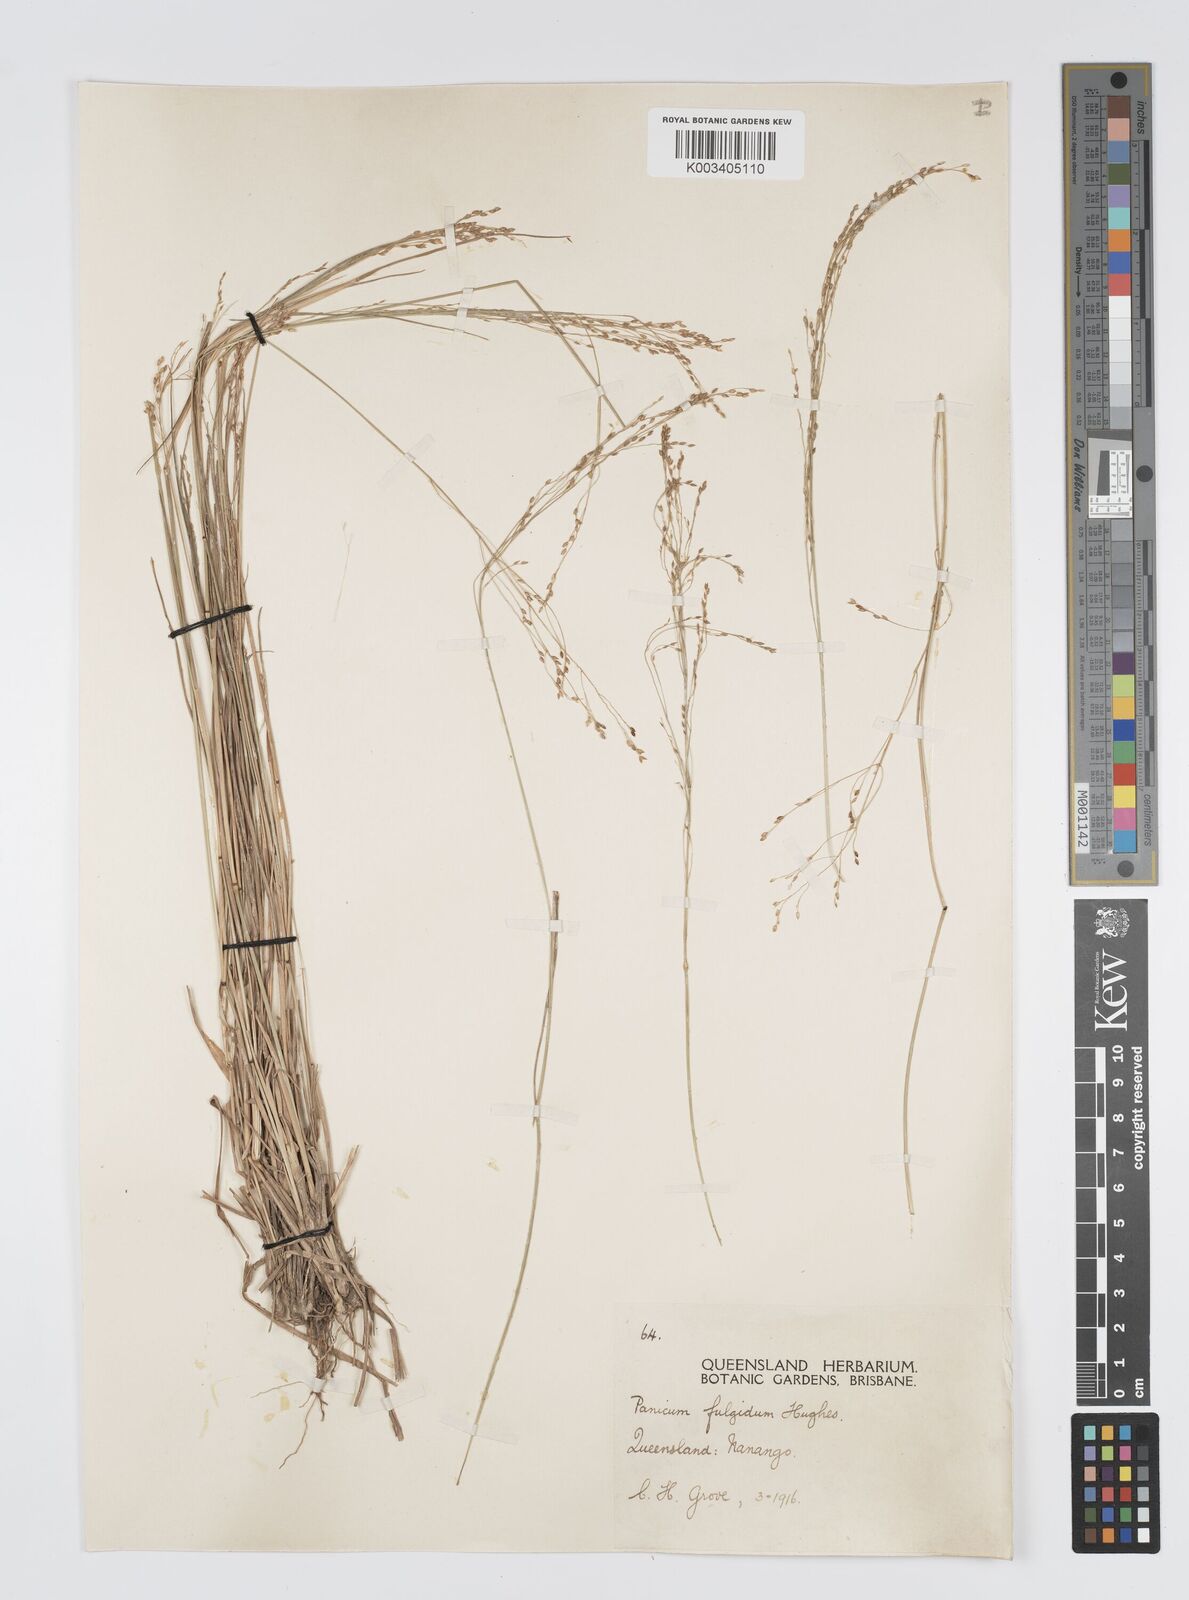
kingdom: Plantae
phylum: Tracheophyta
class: Liliopsida
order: Poales
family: Poaceae
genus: Panicum
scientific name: Panicum simile
